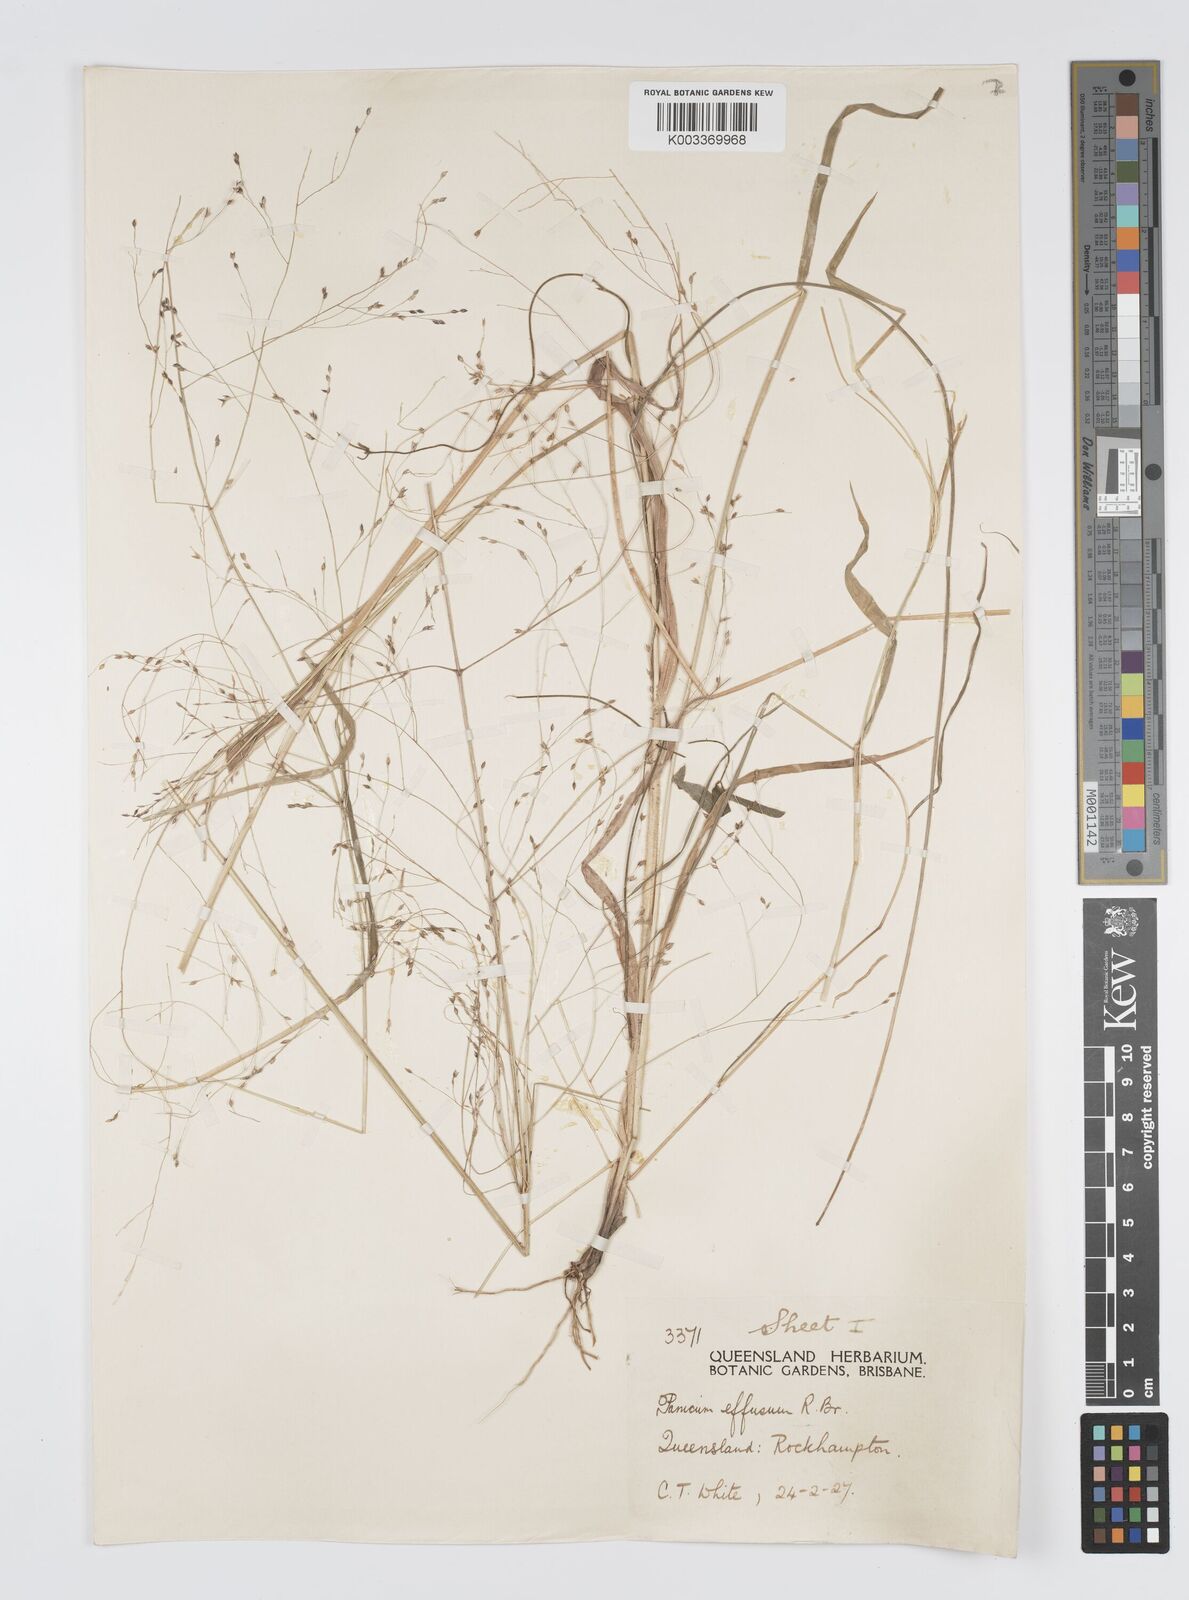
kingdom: Plantae
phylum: Tracheophyta
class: Liliopsida
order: Poales
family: Poaceae
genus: Panicum
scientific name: Panicum effusum
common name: Hairy panic grass
